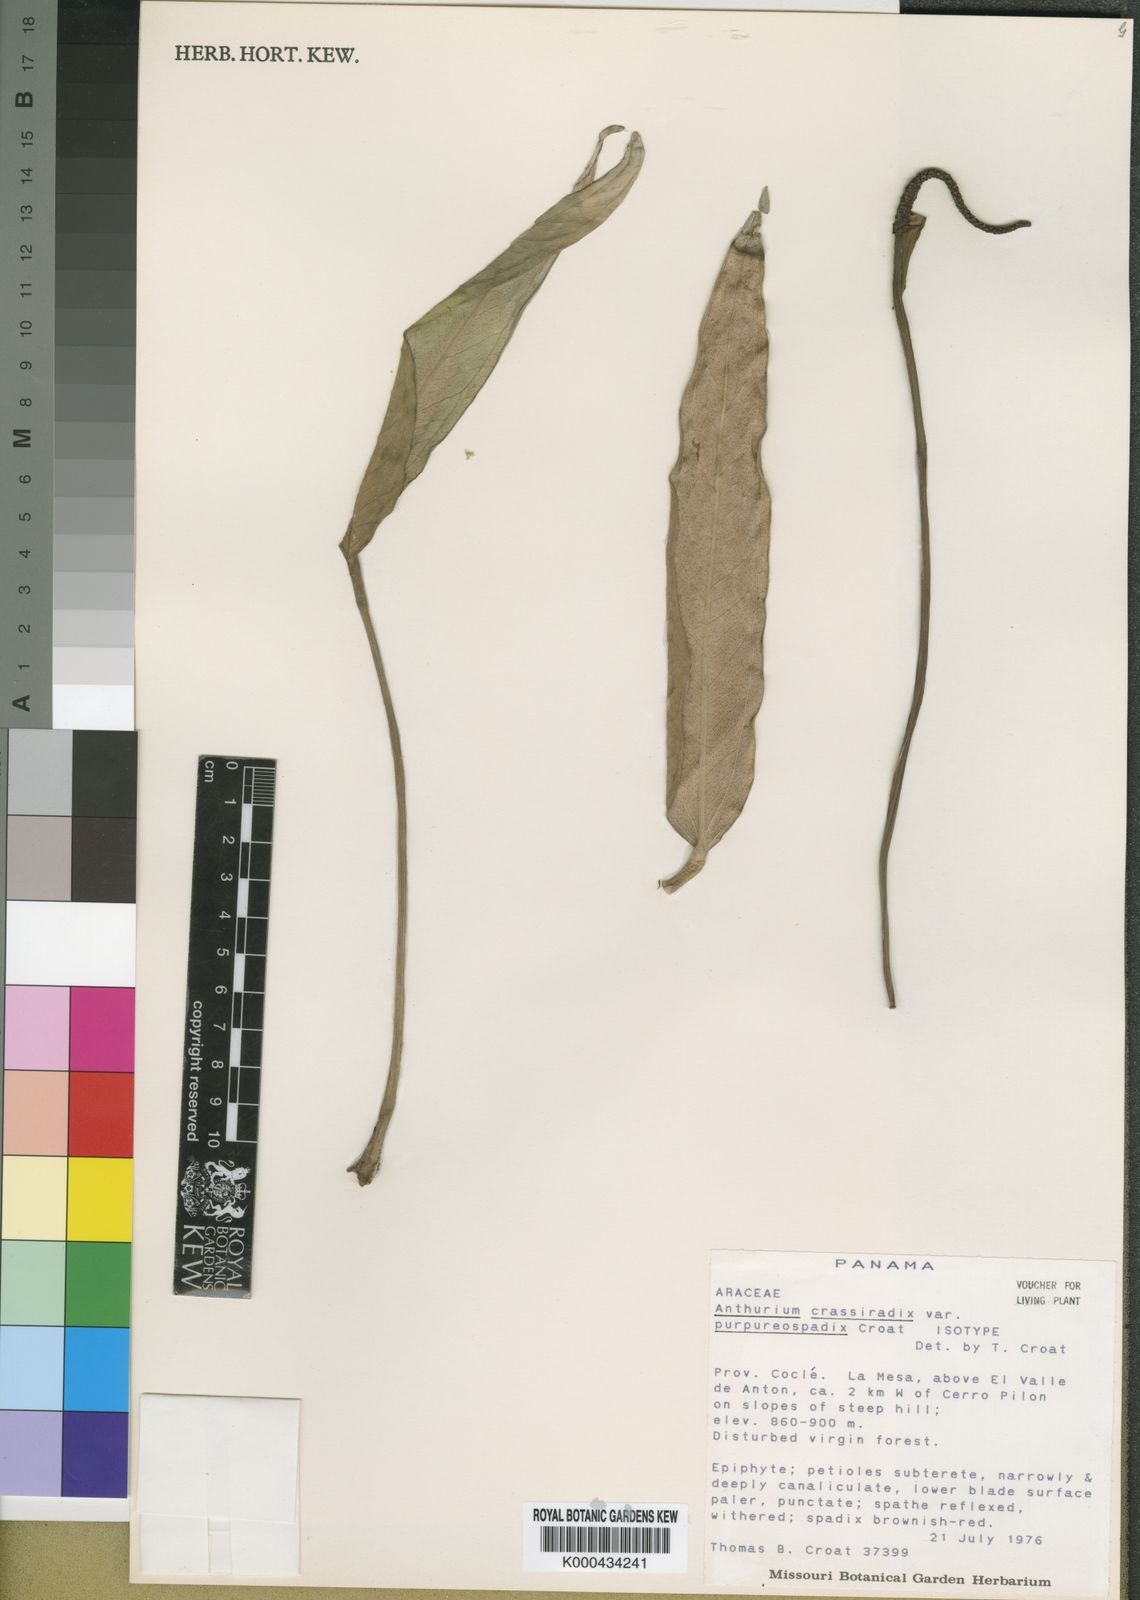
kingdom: Plantae
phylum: Tracheophyta
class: Liliopsida
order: Alismatales
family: Araceae
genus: Anthurium
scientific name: Anthurium crassiradix
